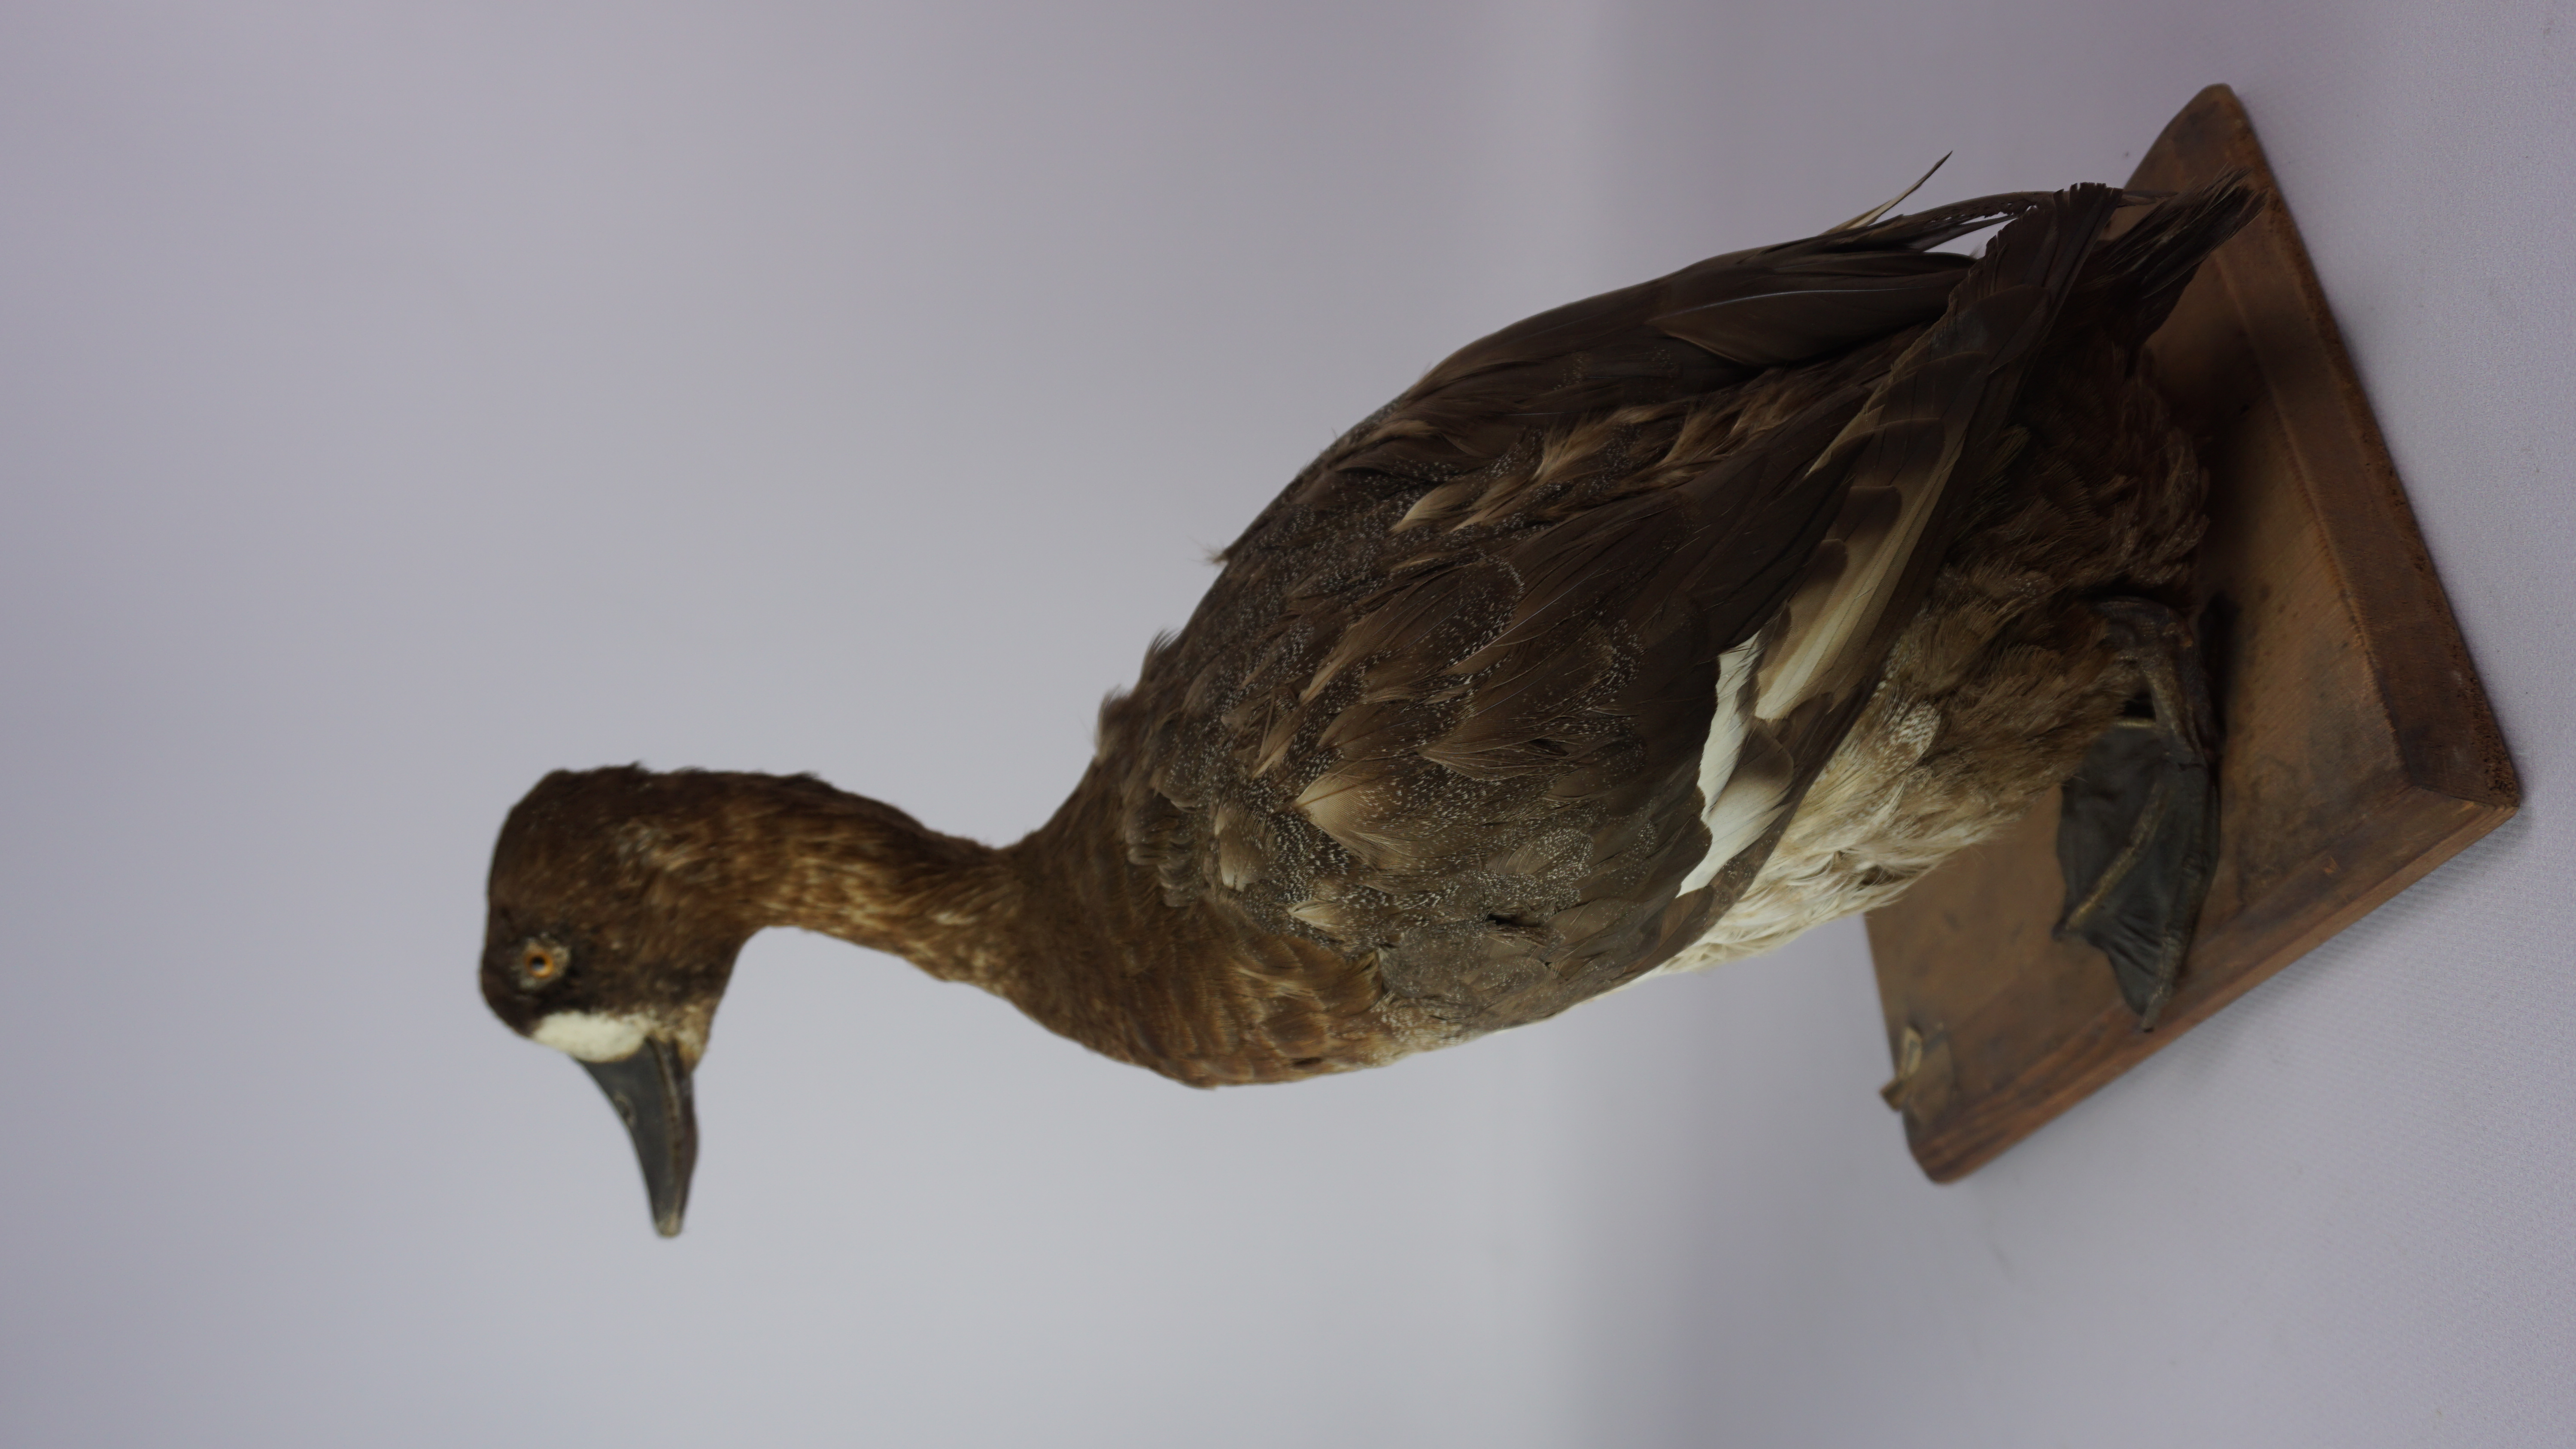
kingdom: Animalia
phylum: Chordata
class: Aves
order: Anseriformes
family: Anatidae
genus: Aythya
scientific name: Aythya marila
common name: Greater scaup
